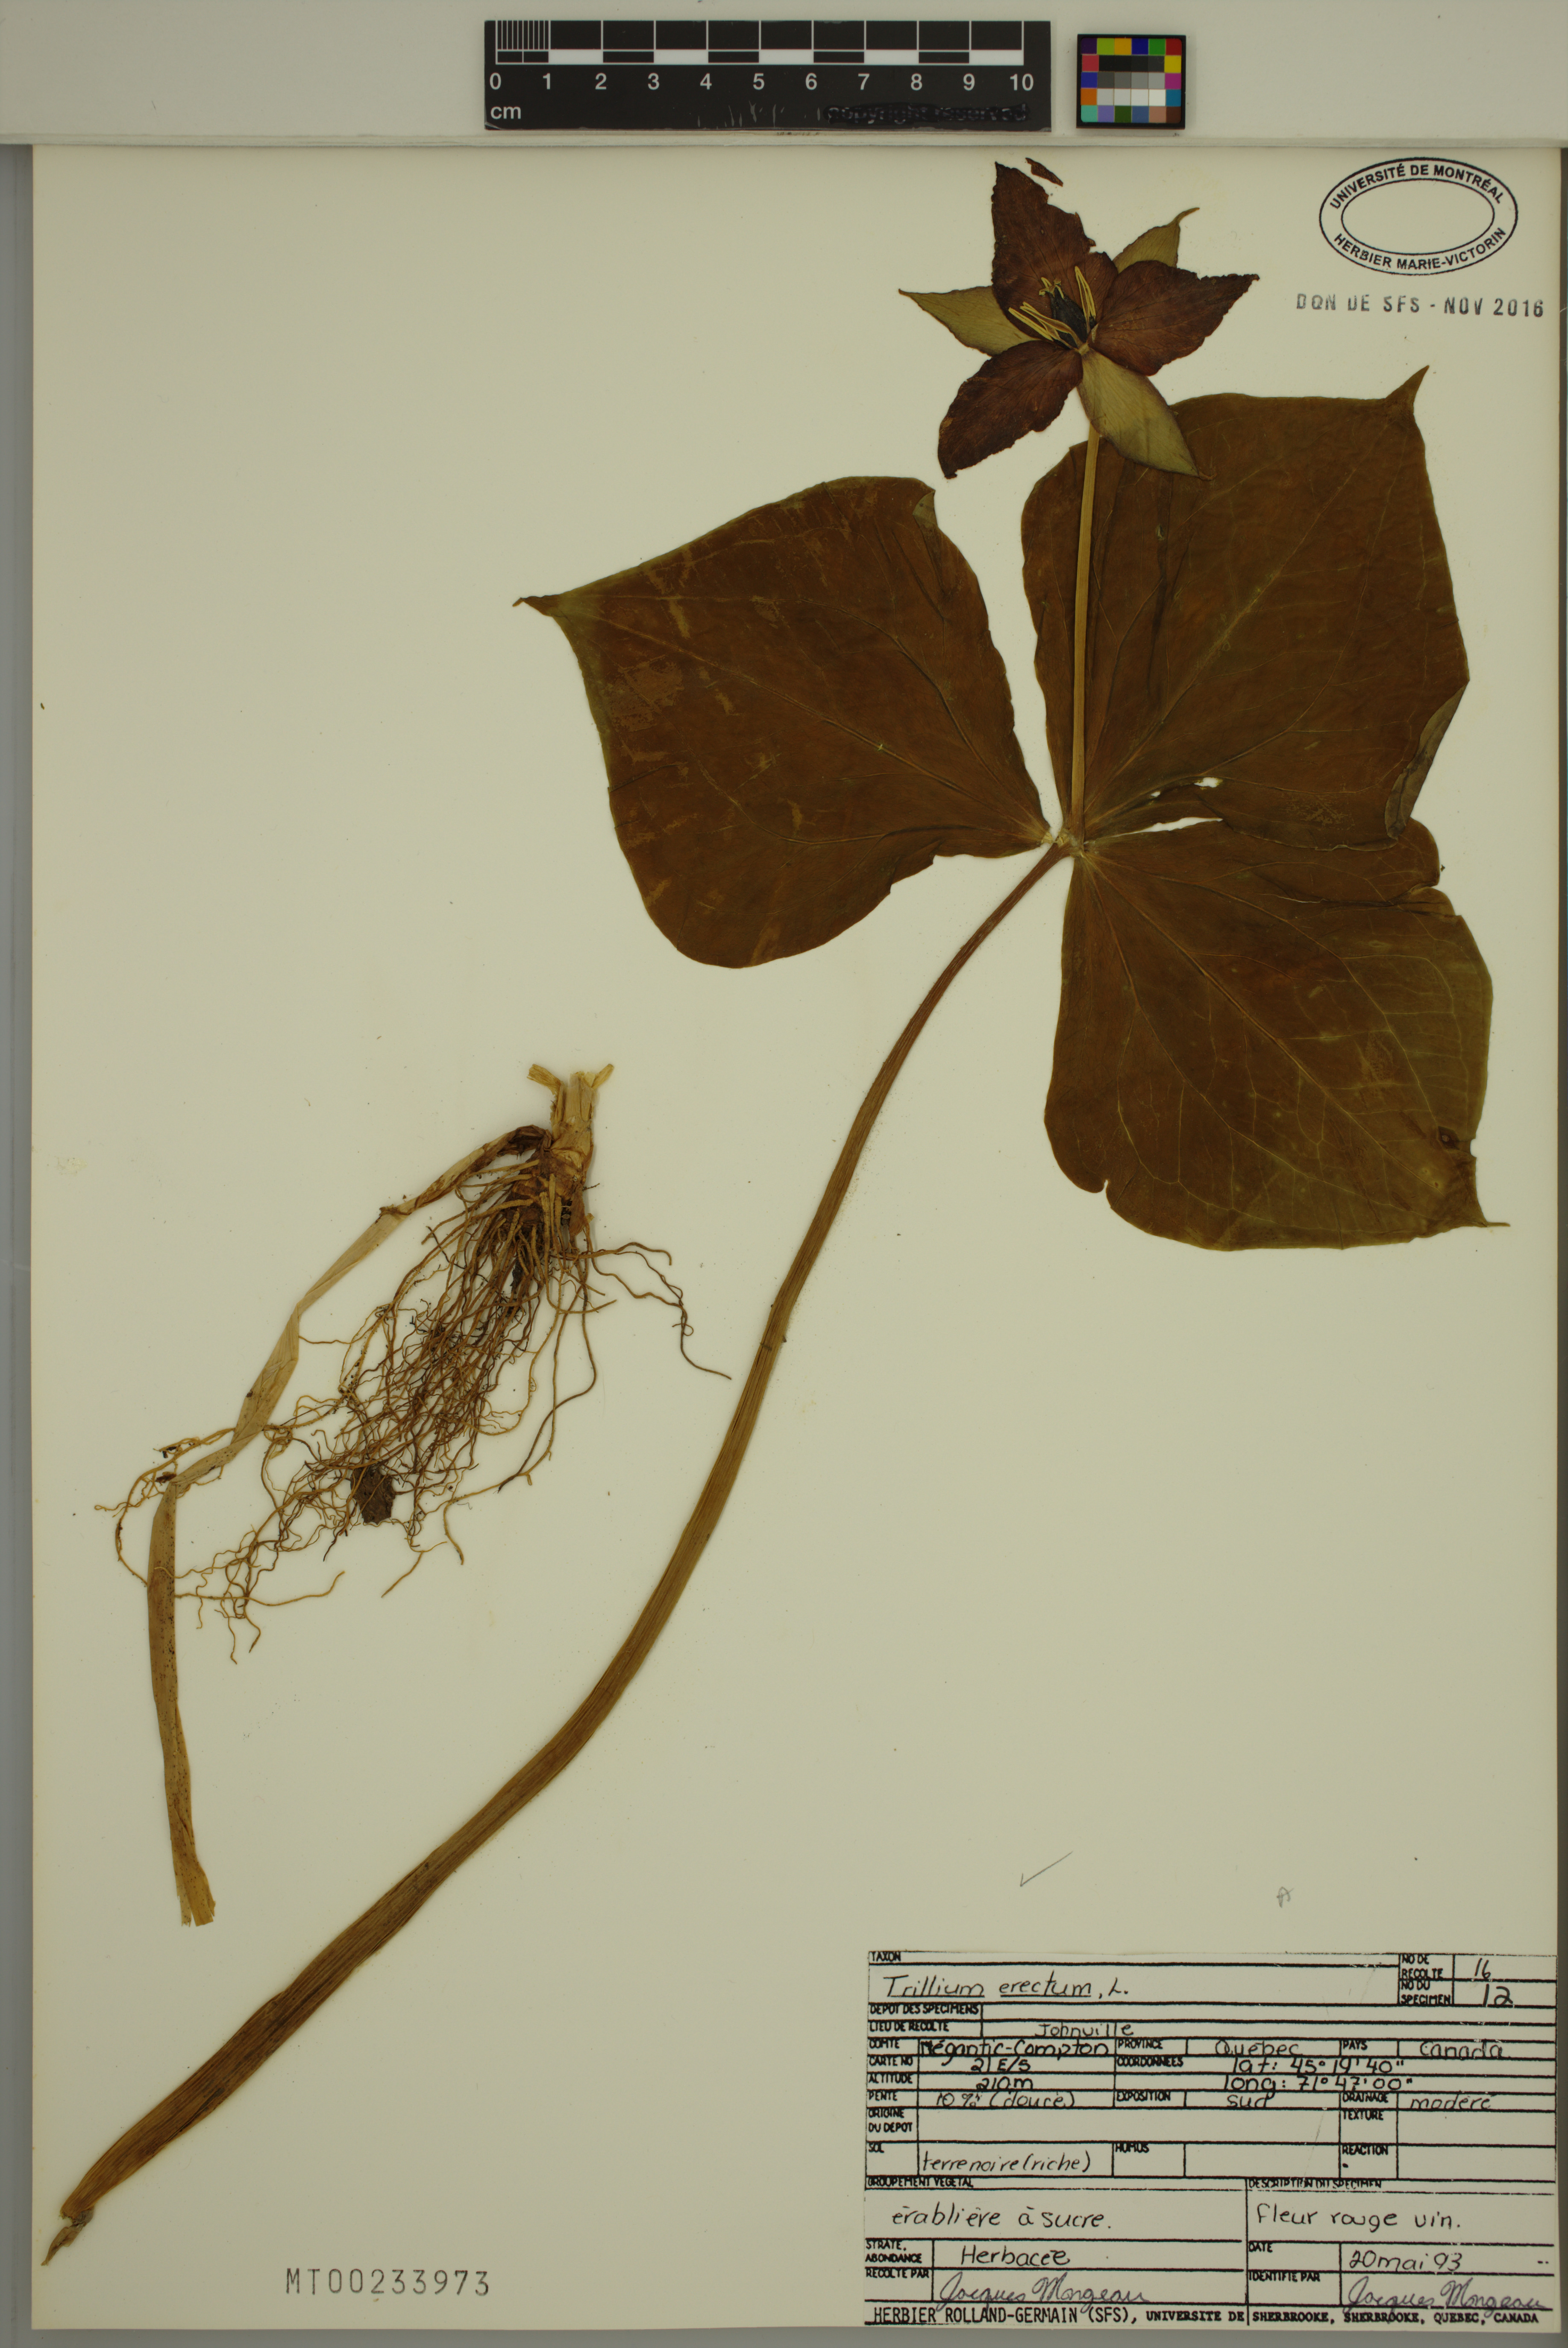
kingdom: Plantae
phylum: Tracheophyta
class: Liliopsida
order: Liliales
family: Melanthiaceae
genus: Trillium
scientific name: Trillium erectum
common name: Purple trillium
